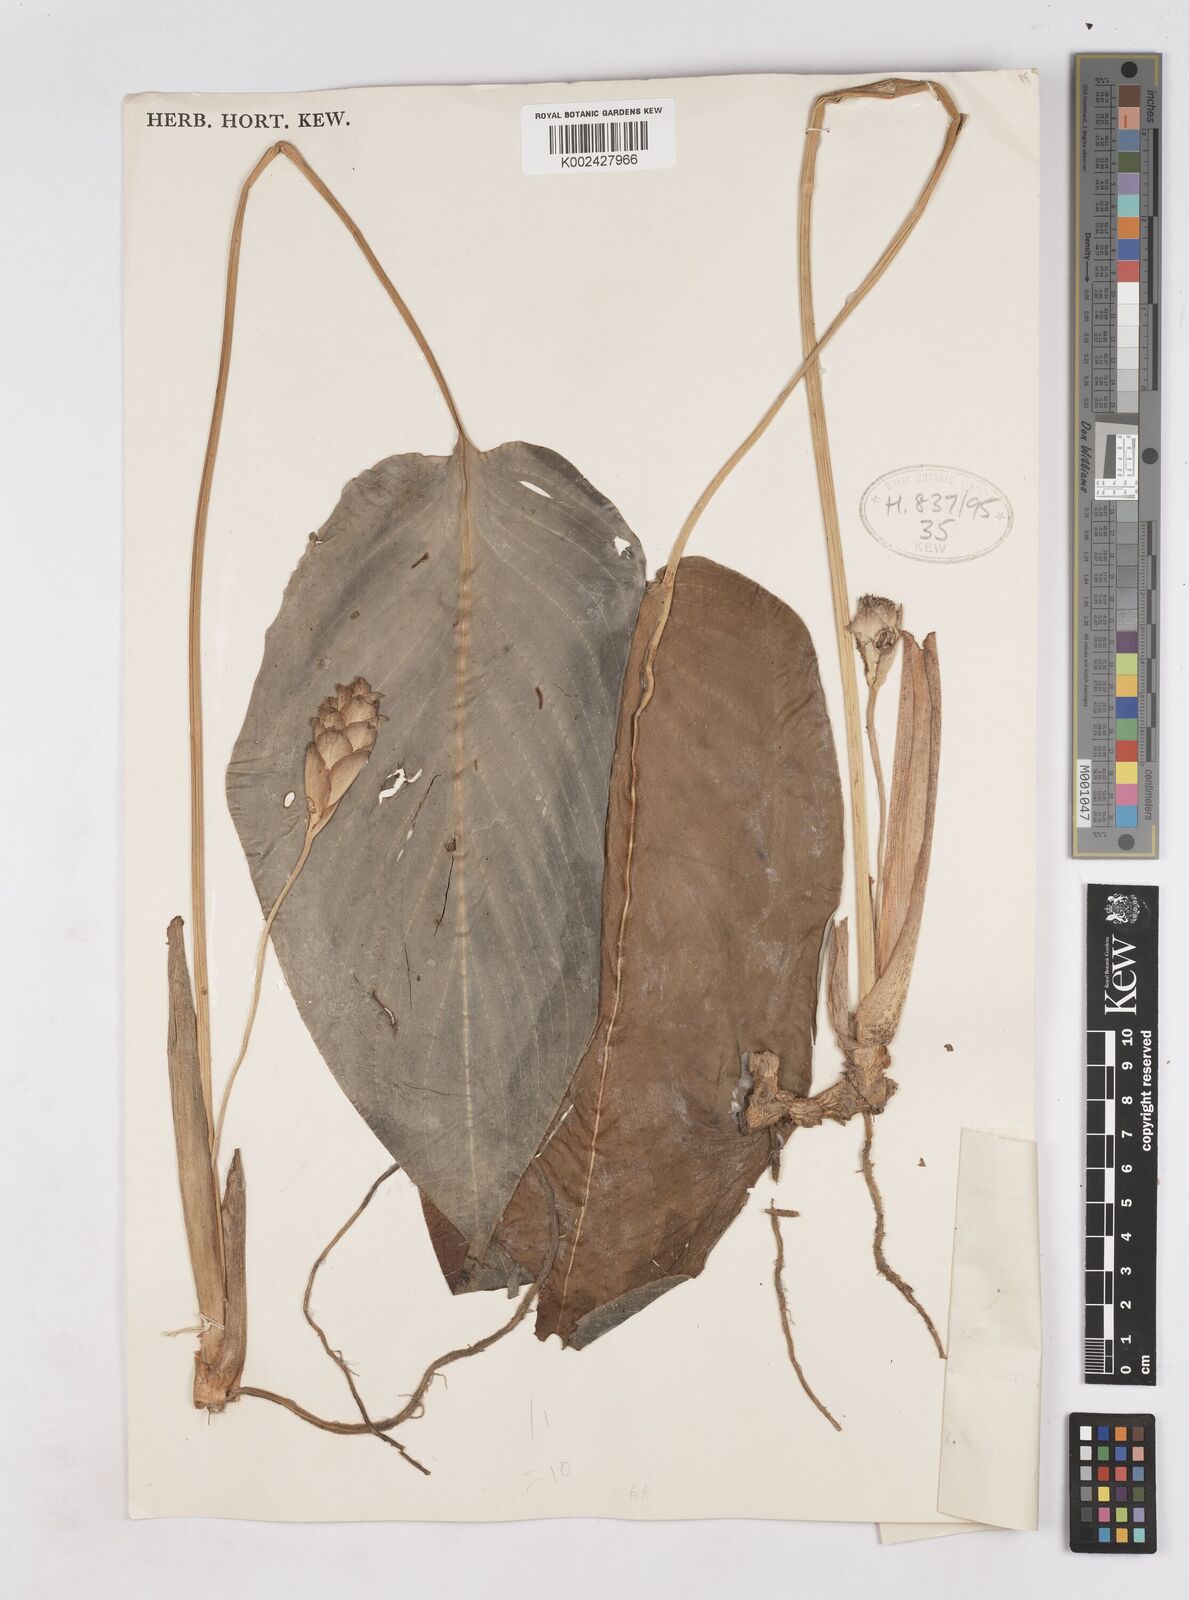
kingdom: Plantae
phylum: Tracheophyta
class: Liliopsida
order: Zingiberales
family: Zingiberaceae
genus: Scaphochlamys
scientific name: Scaphochlamys sylvestris
